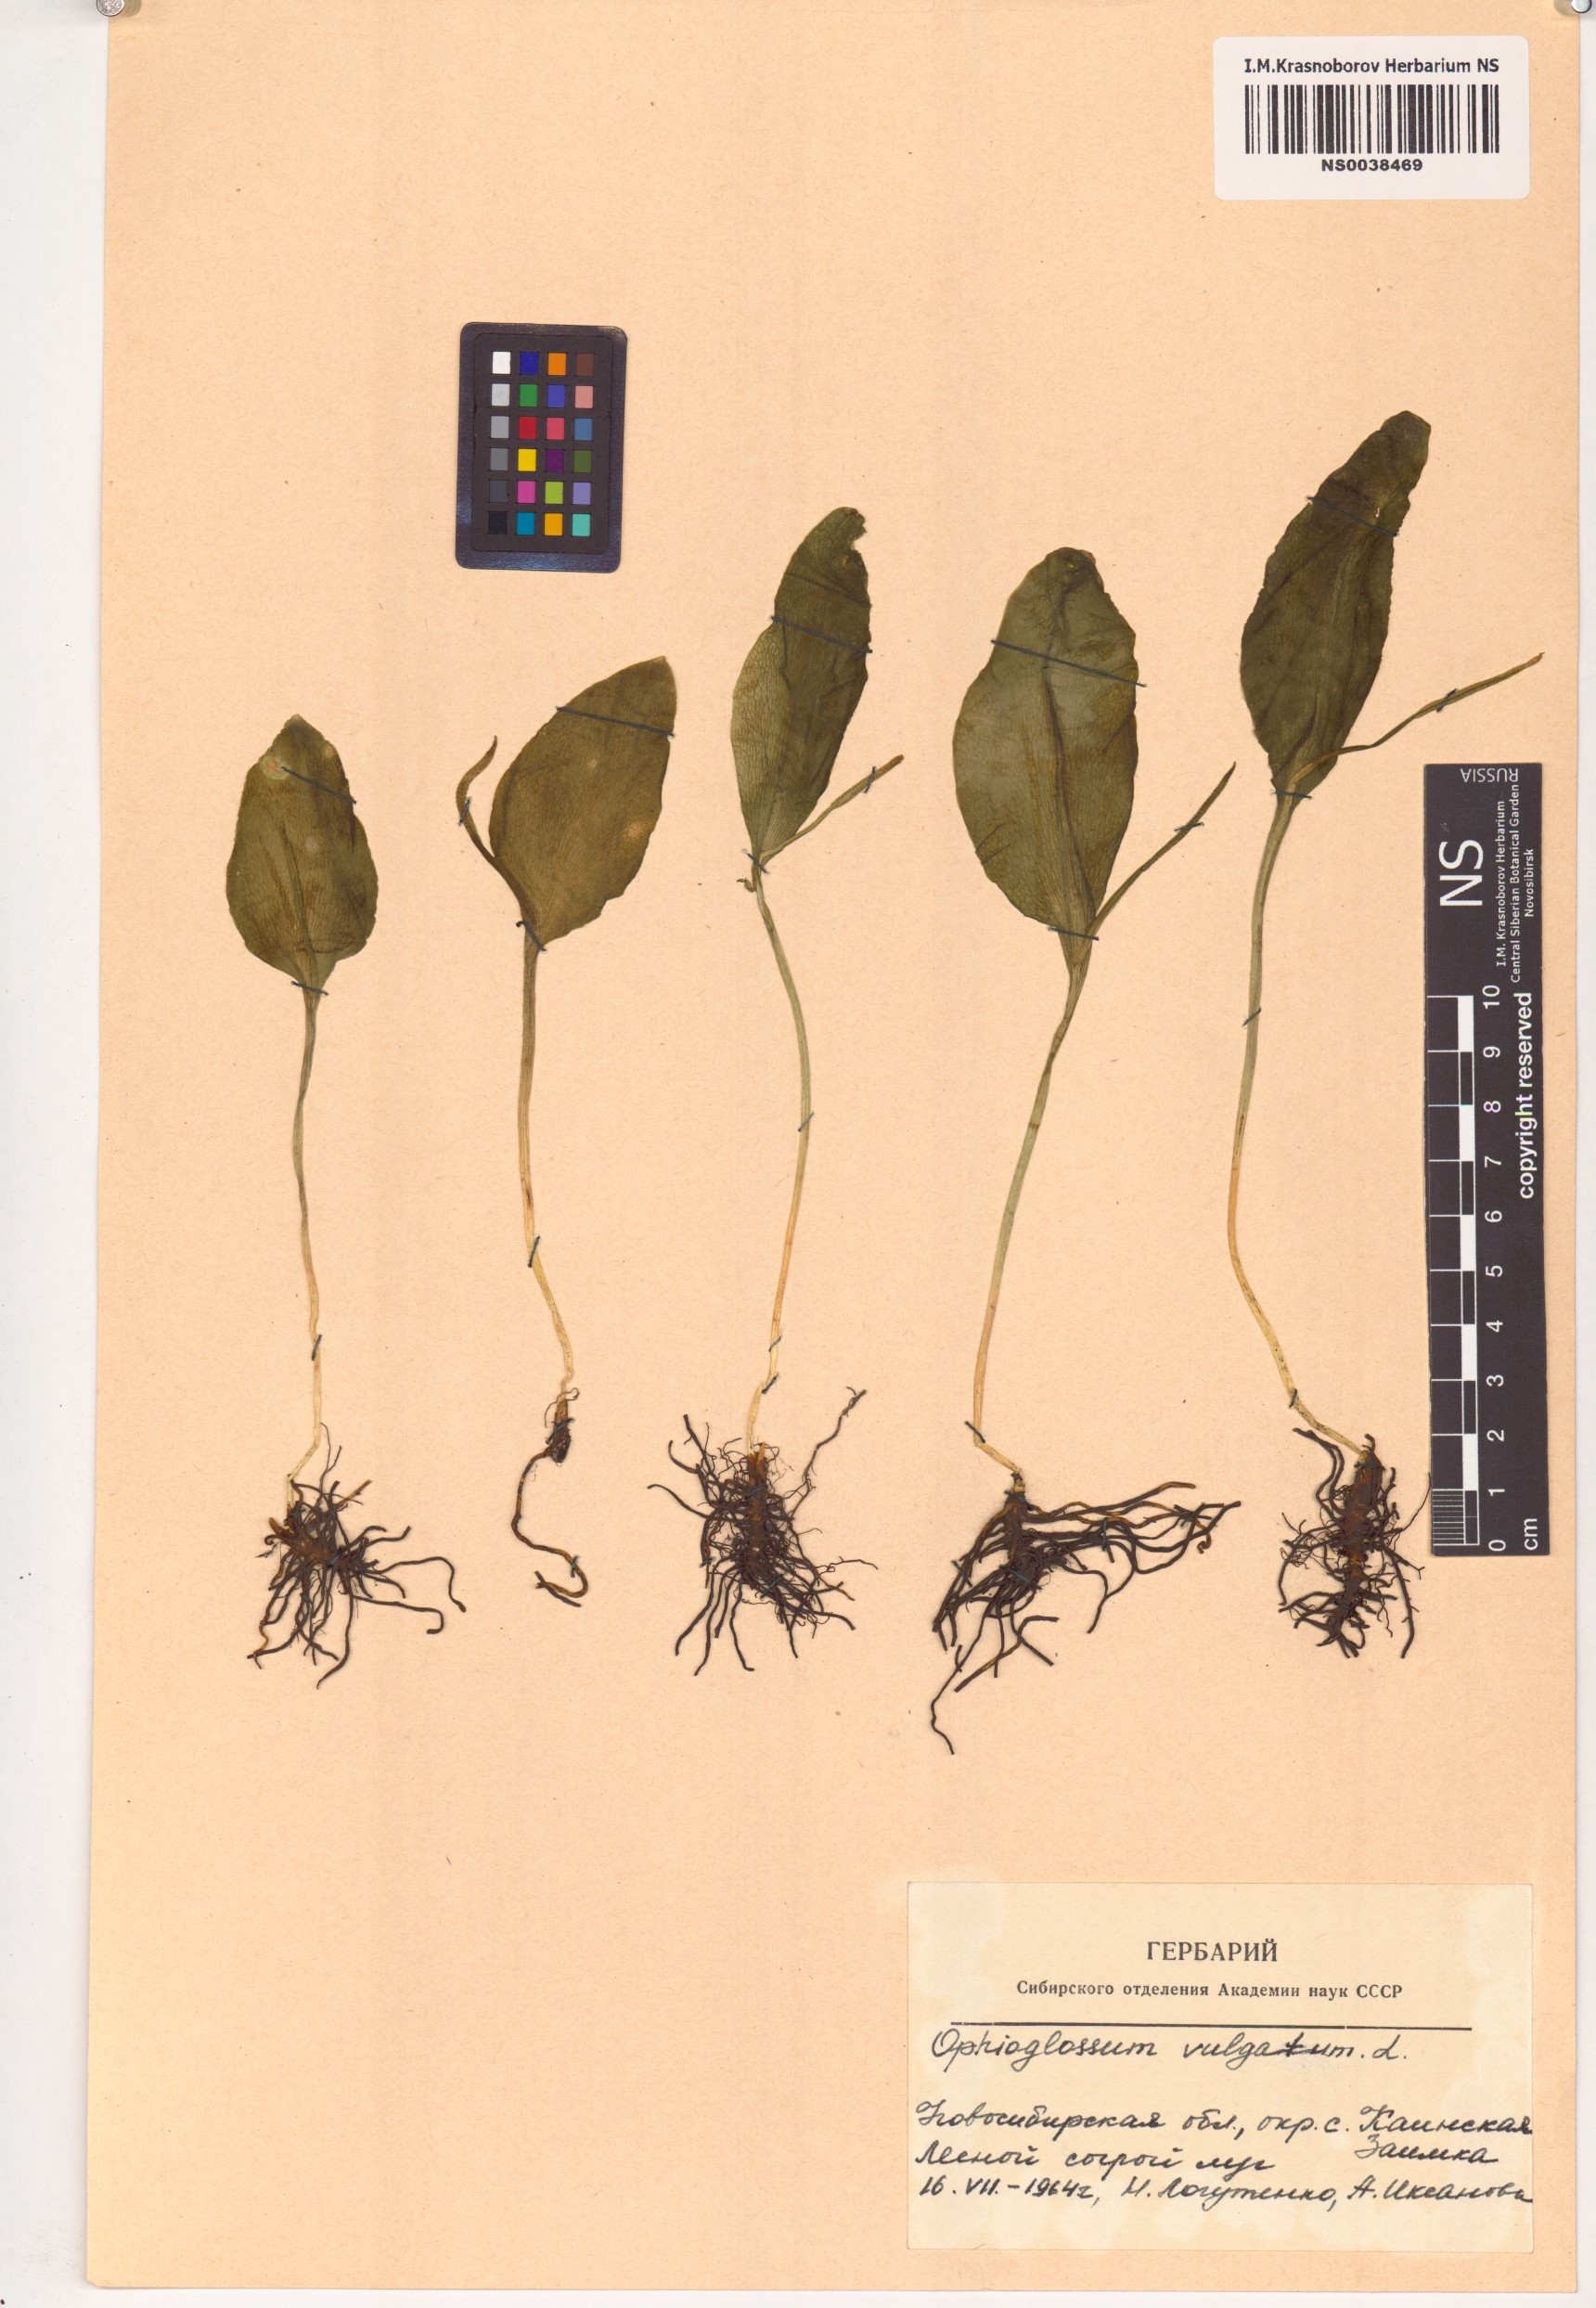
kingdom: Plantae
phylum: Tracheophyta
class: Polypodiopsida
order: Ophioglossales
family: Ophioglossaceae
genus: Ophioglossum
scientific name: Ophioglossum vulgatum
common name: Adder's-tongue
